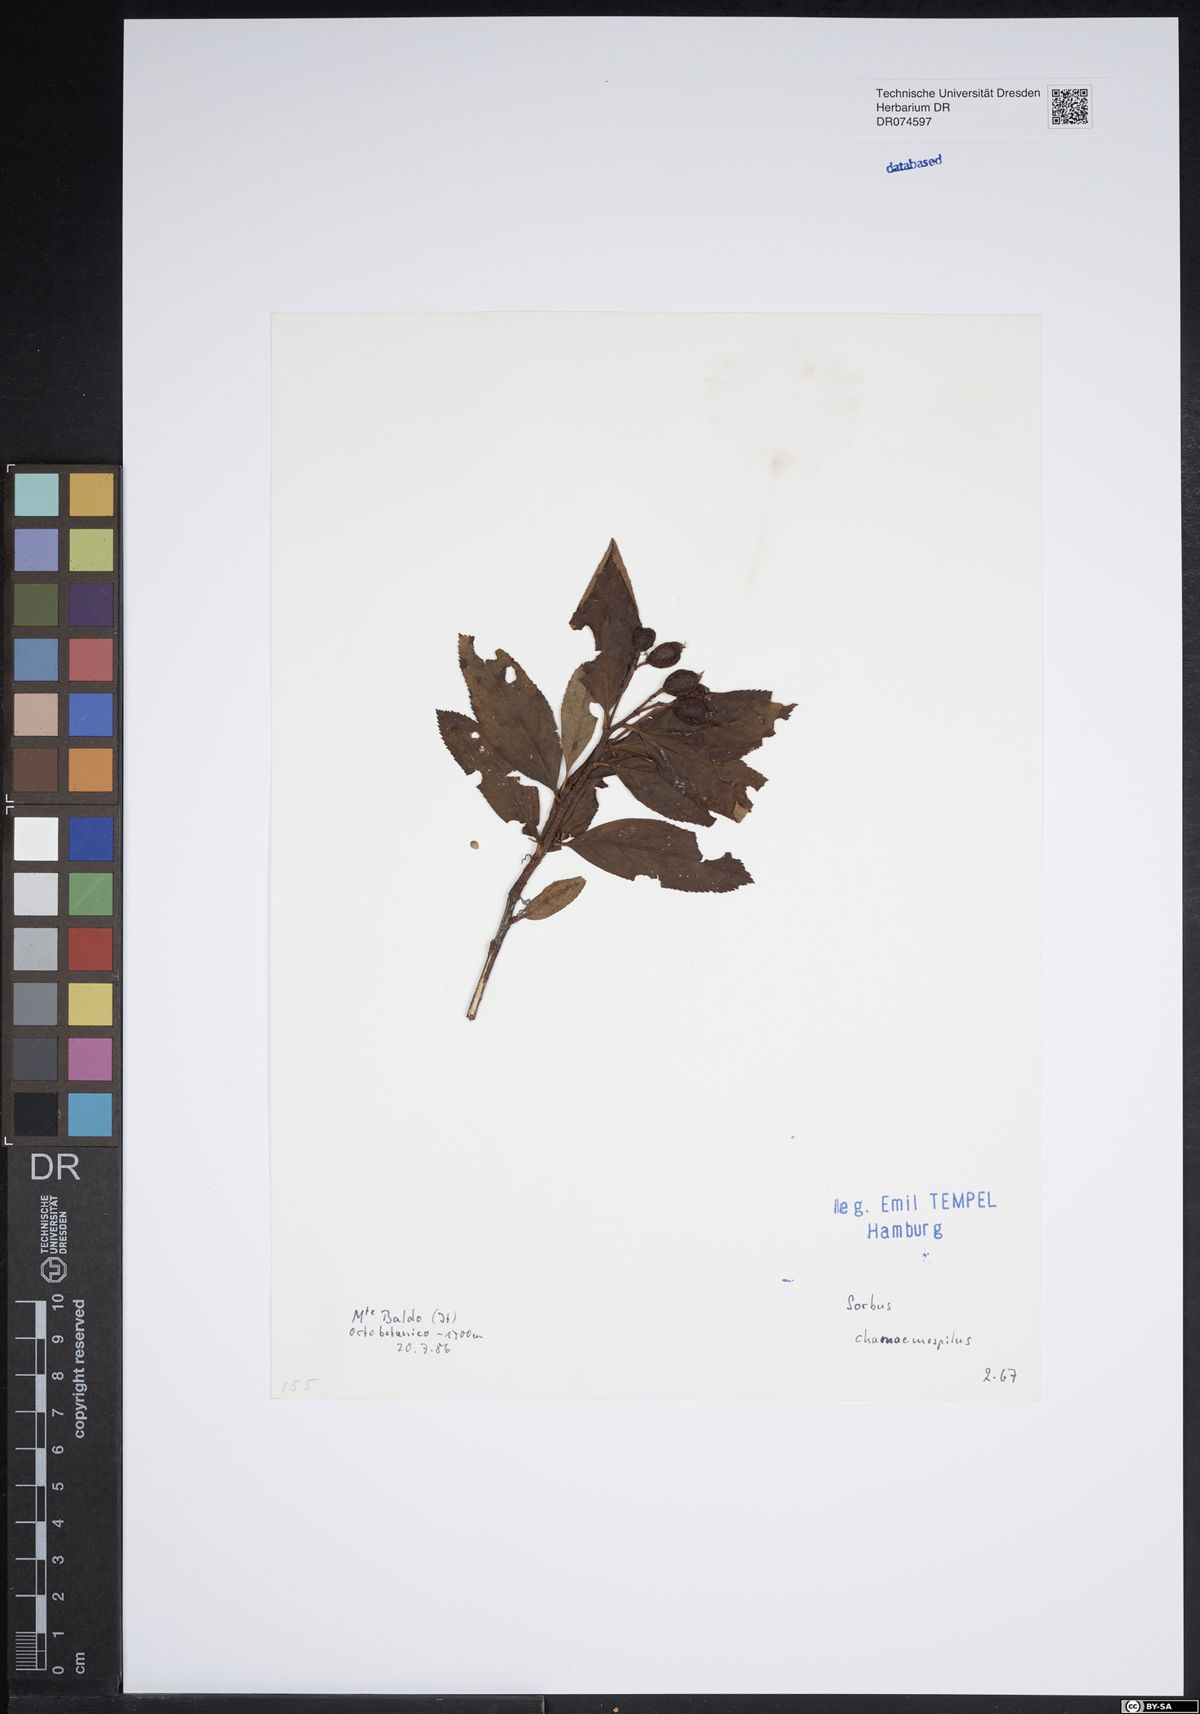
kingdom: Plantae
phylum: Tracheophyta
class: Magnoliopsida
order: Rosales
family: Rosaceae
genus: Chamaemespilus
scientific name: Chamaemespilus alpina
